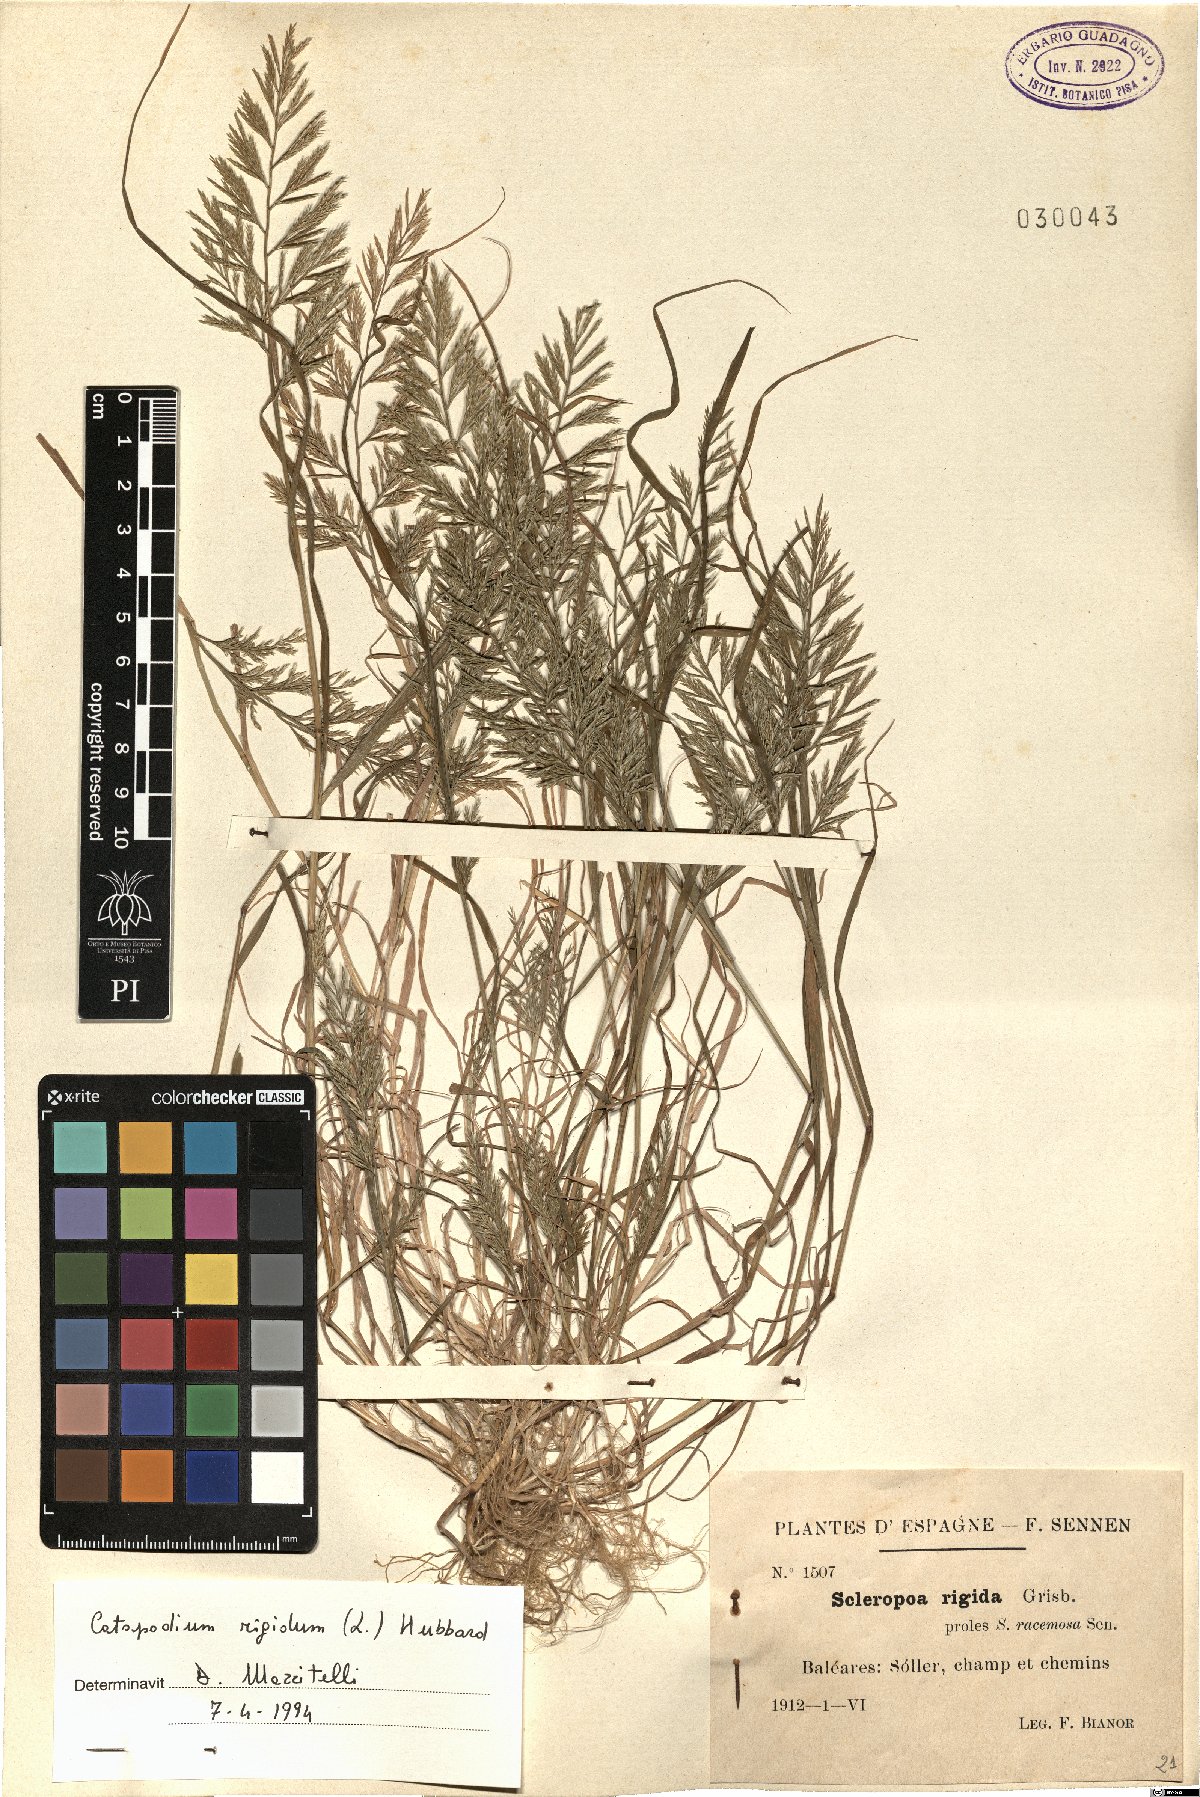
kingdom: Plantae
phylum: Tracheophyta
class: Liliopsida
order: Poales
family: Poaceae
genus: Catapodium
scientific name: Catapodium rigidum
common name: Fern-grass
